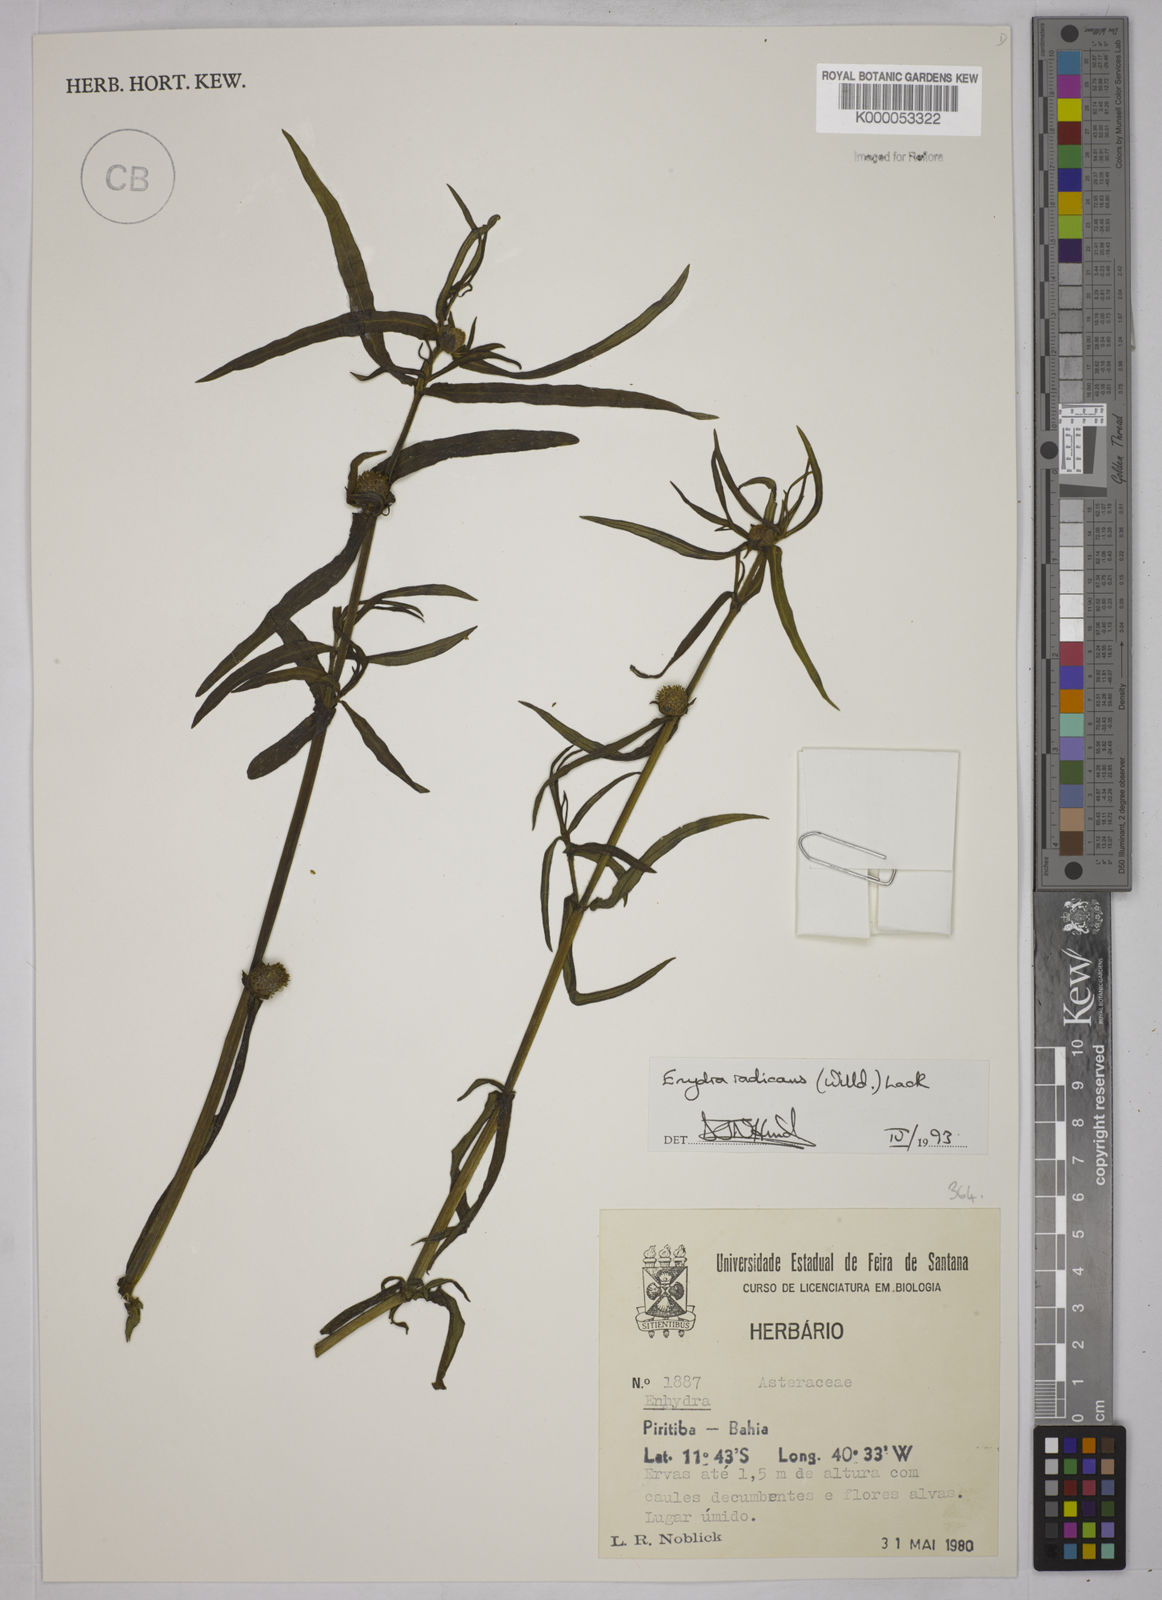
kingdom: Plantae
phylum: Tracheophyta
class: Magnoliopsida
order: Asterales
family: Asteraceae
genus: Enydra
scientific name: Enydra radicans
